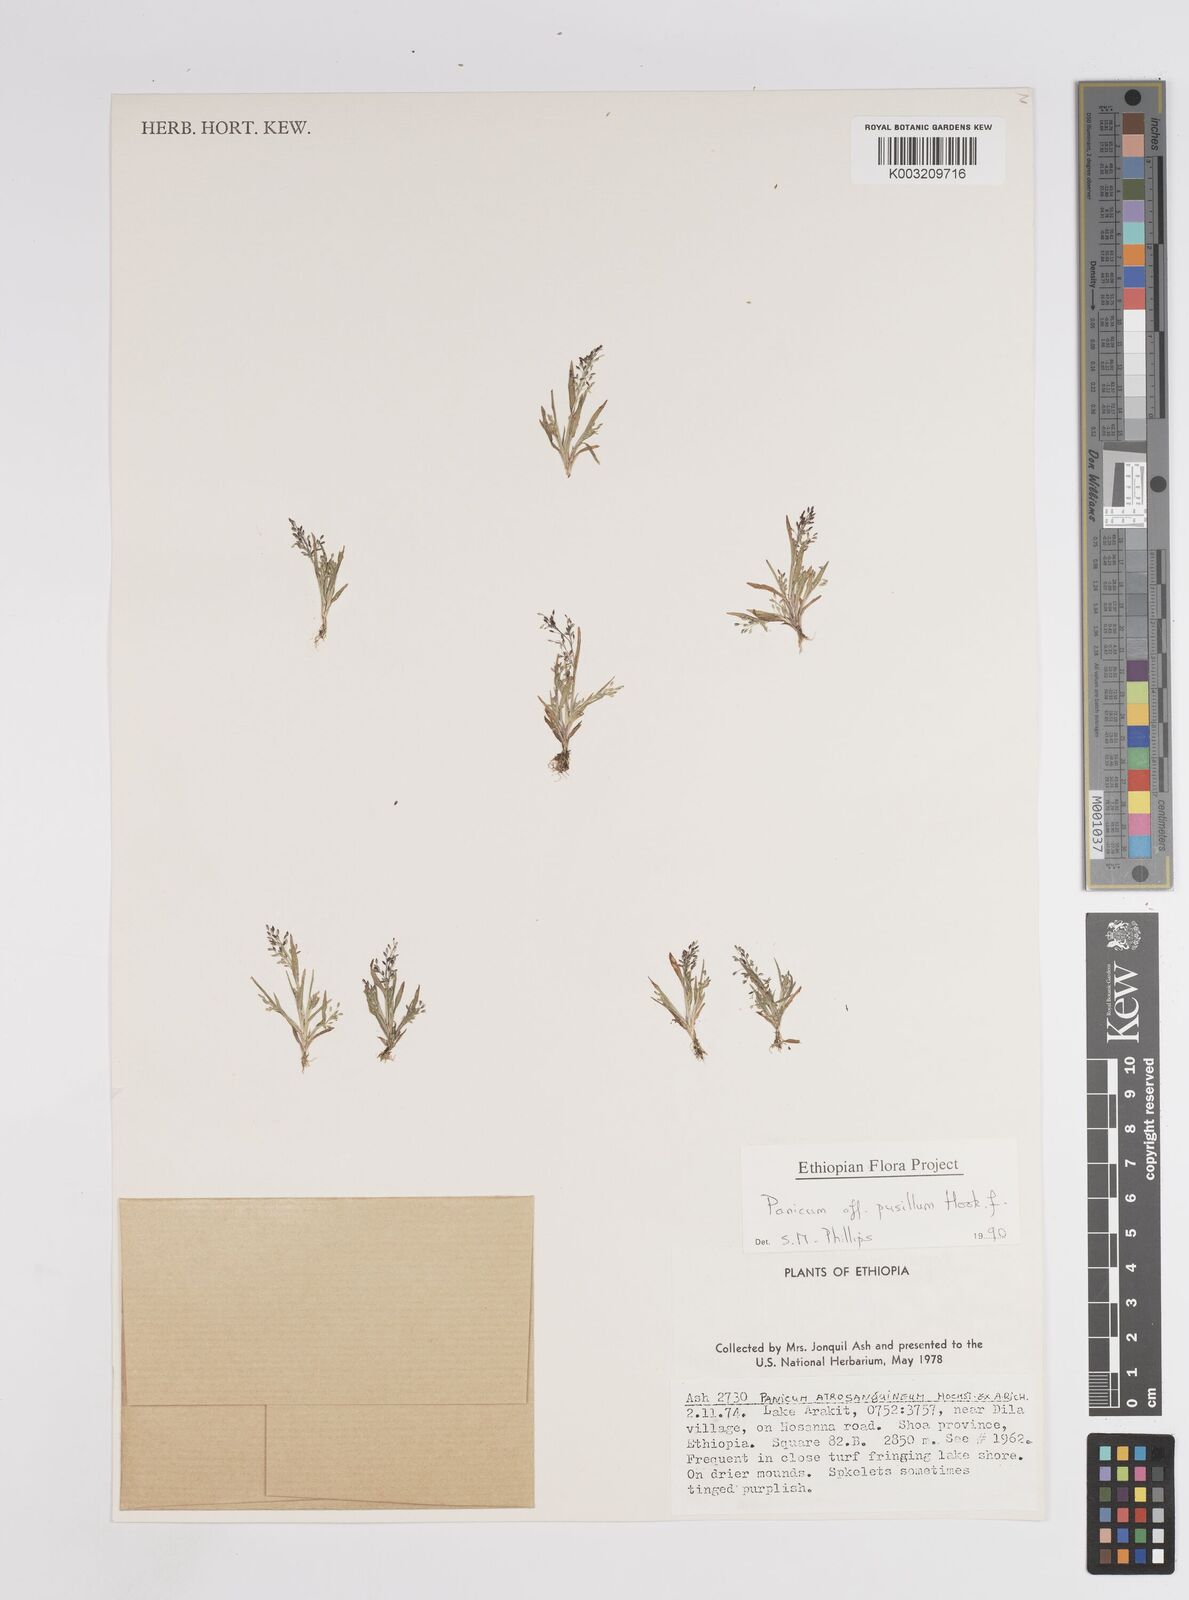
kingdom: Plantae
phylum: Tracheophyta
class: Liliopsida
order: Poales
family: Poaceae
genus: Panicum
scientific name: Panicum pusillum
